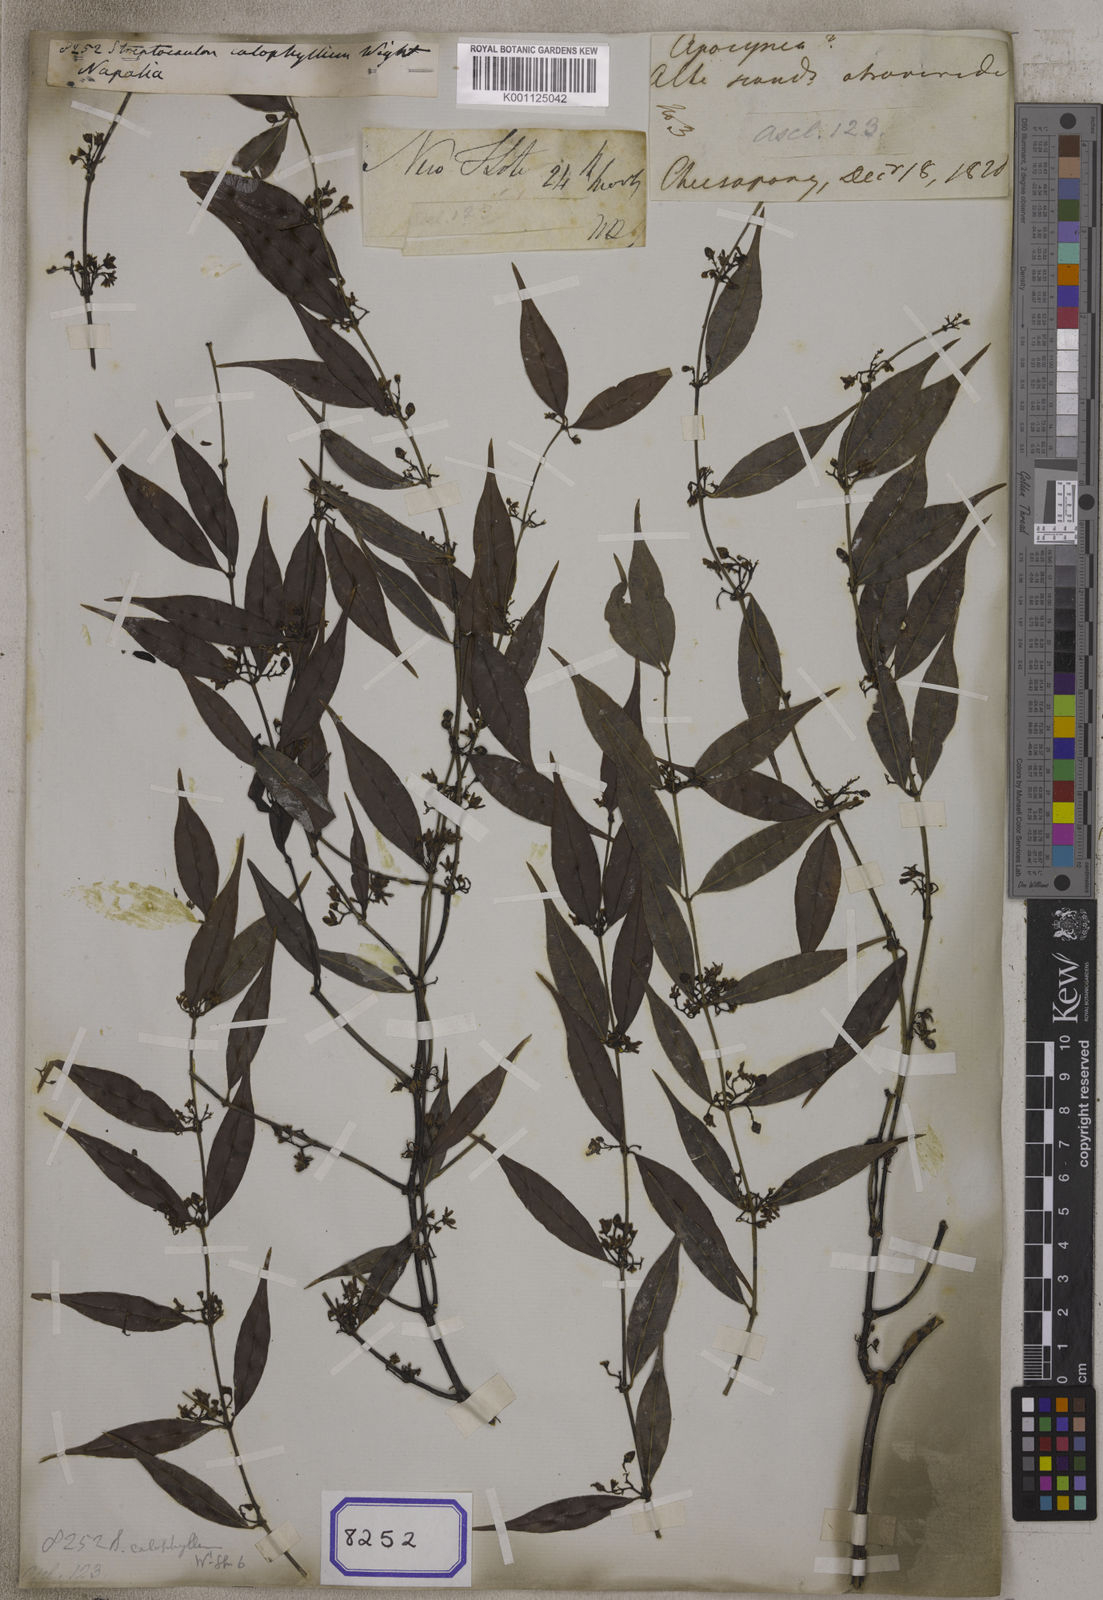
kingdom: Plantae
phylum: Tracheophyta
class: Magnoliopsida
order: Gentianales
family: Apocynaceae
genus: Periploca
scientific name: Periploca calophylla
